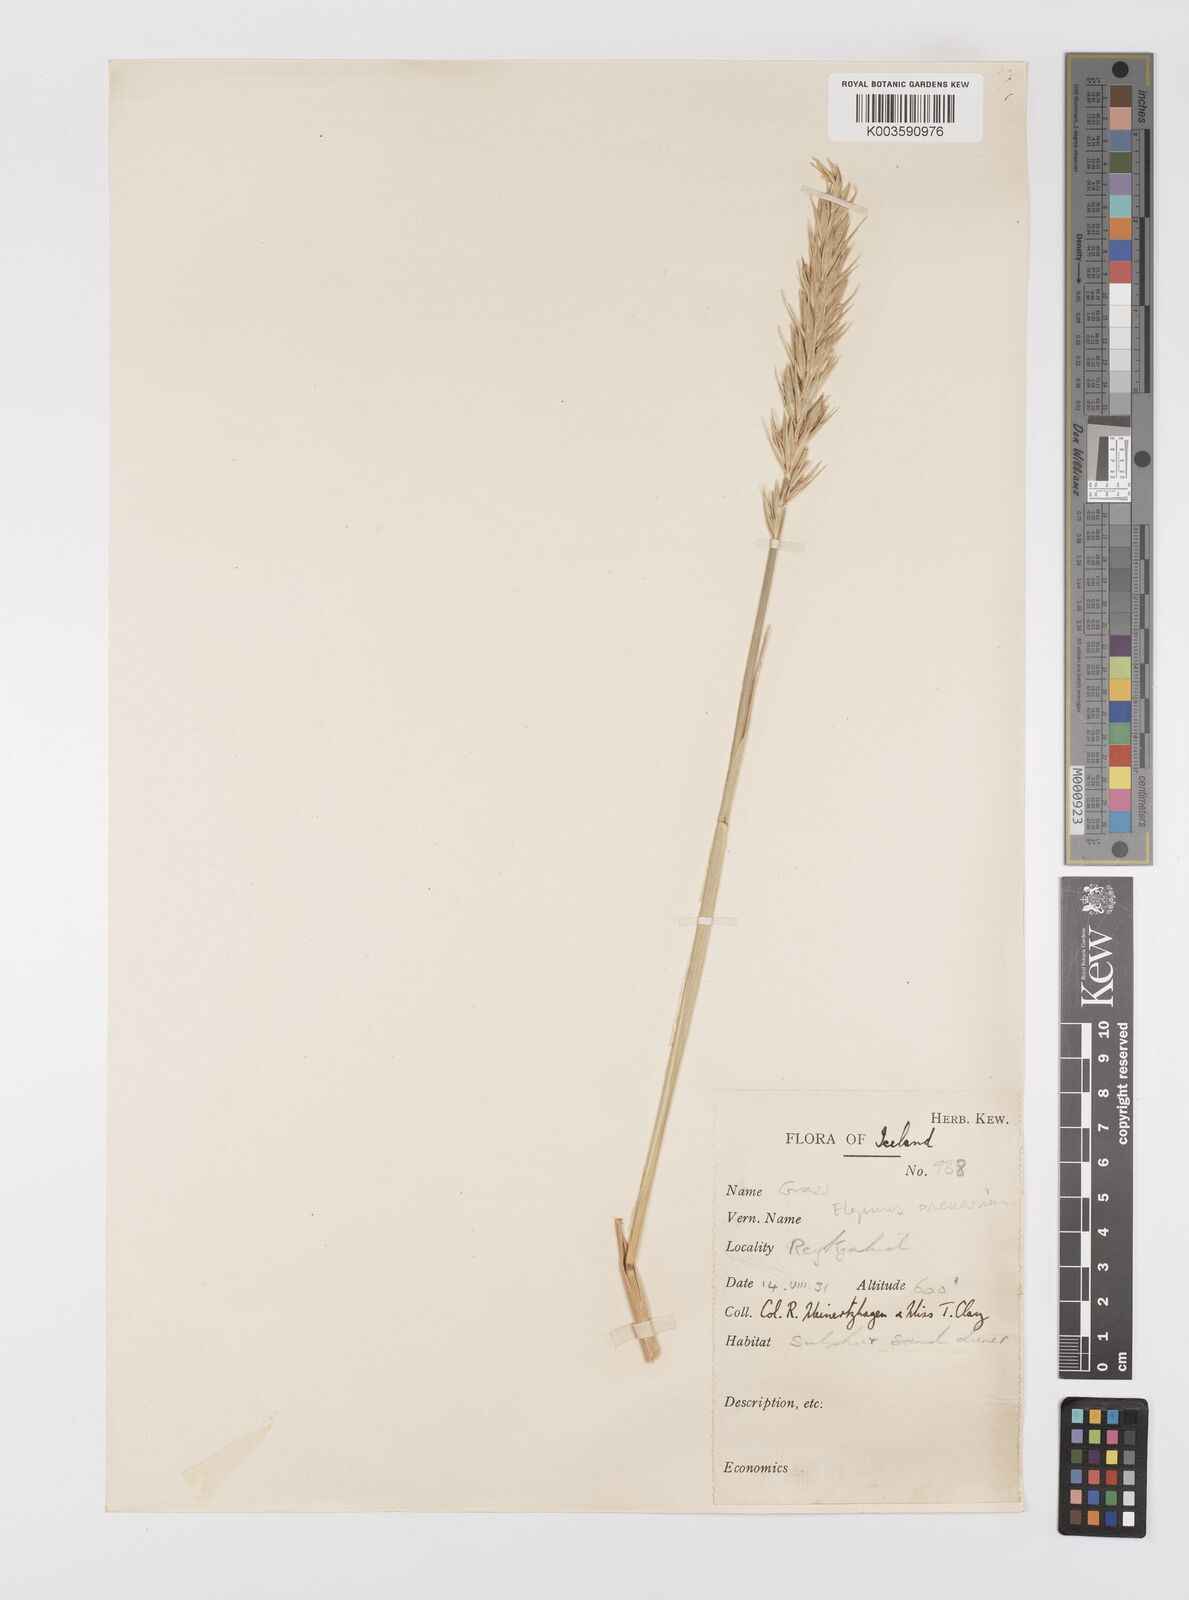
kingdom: Plantae
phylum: Tracheophyta
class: Liliopsida
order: Poales
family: Poaceae
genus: Leymus
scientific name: Leymus arenarius
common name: Lyme-grass
